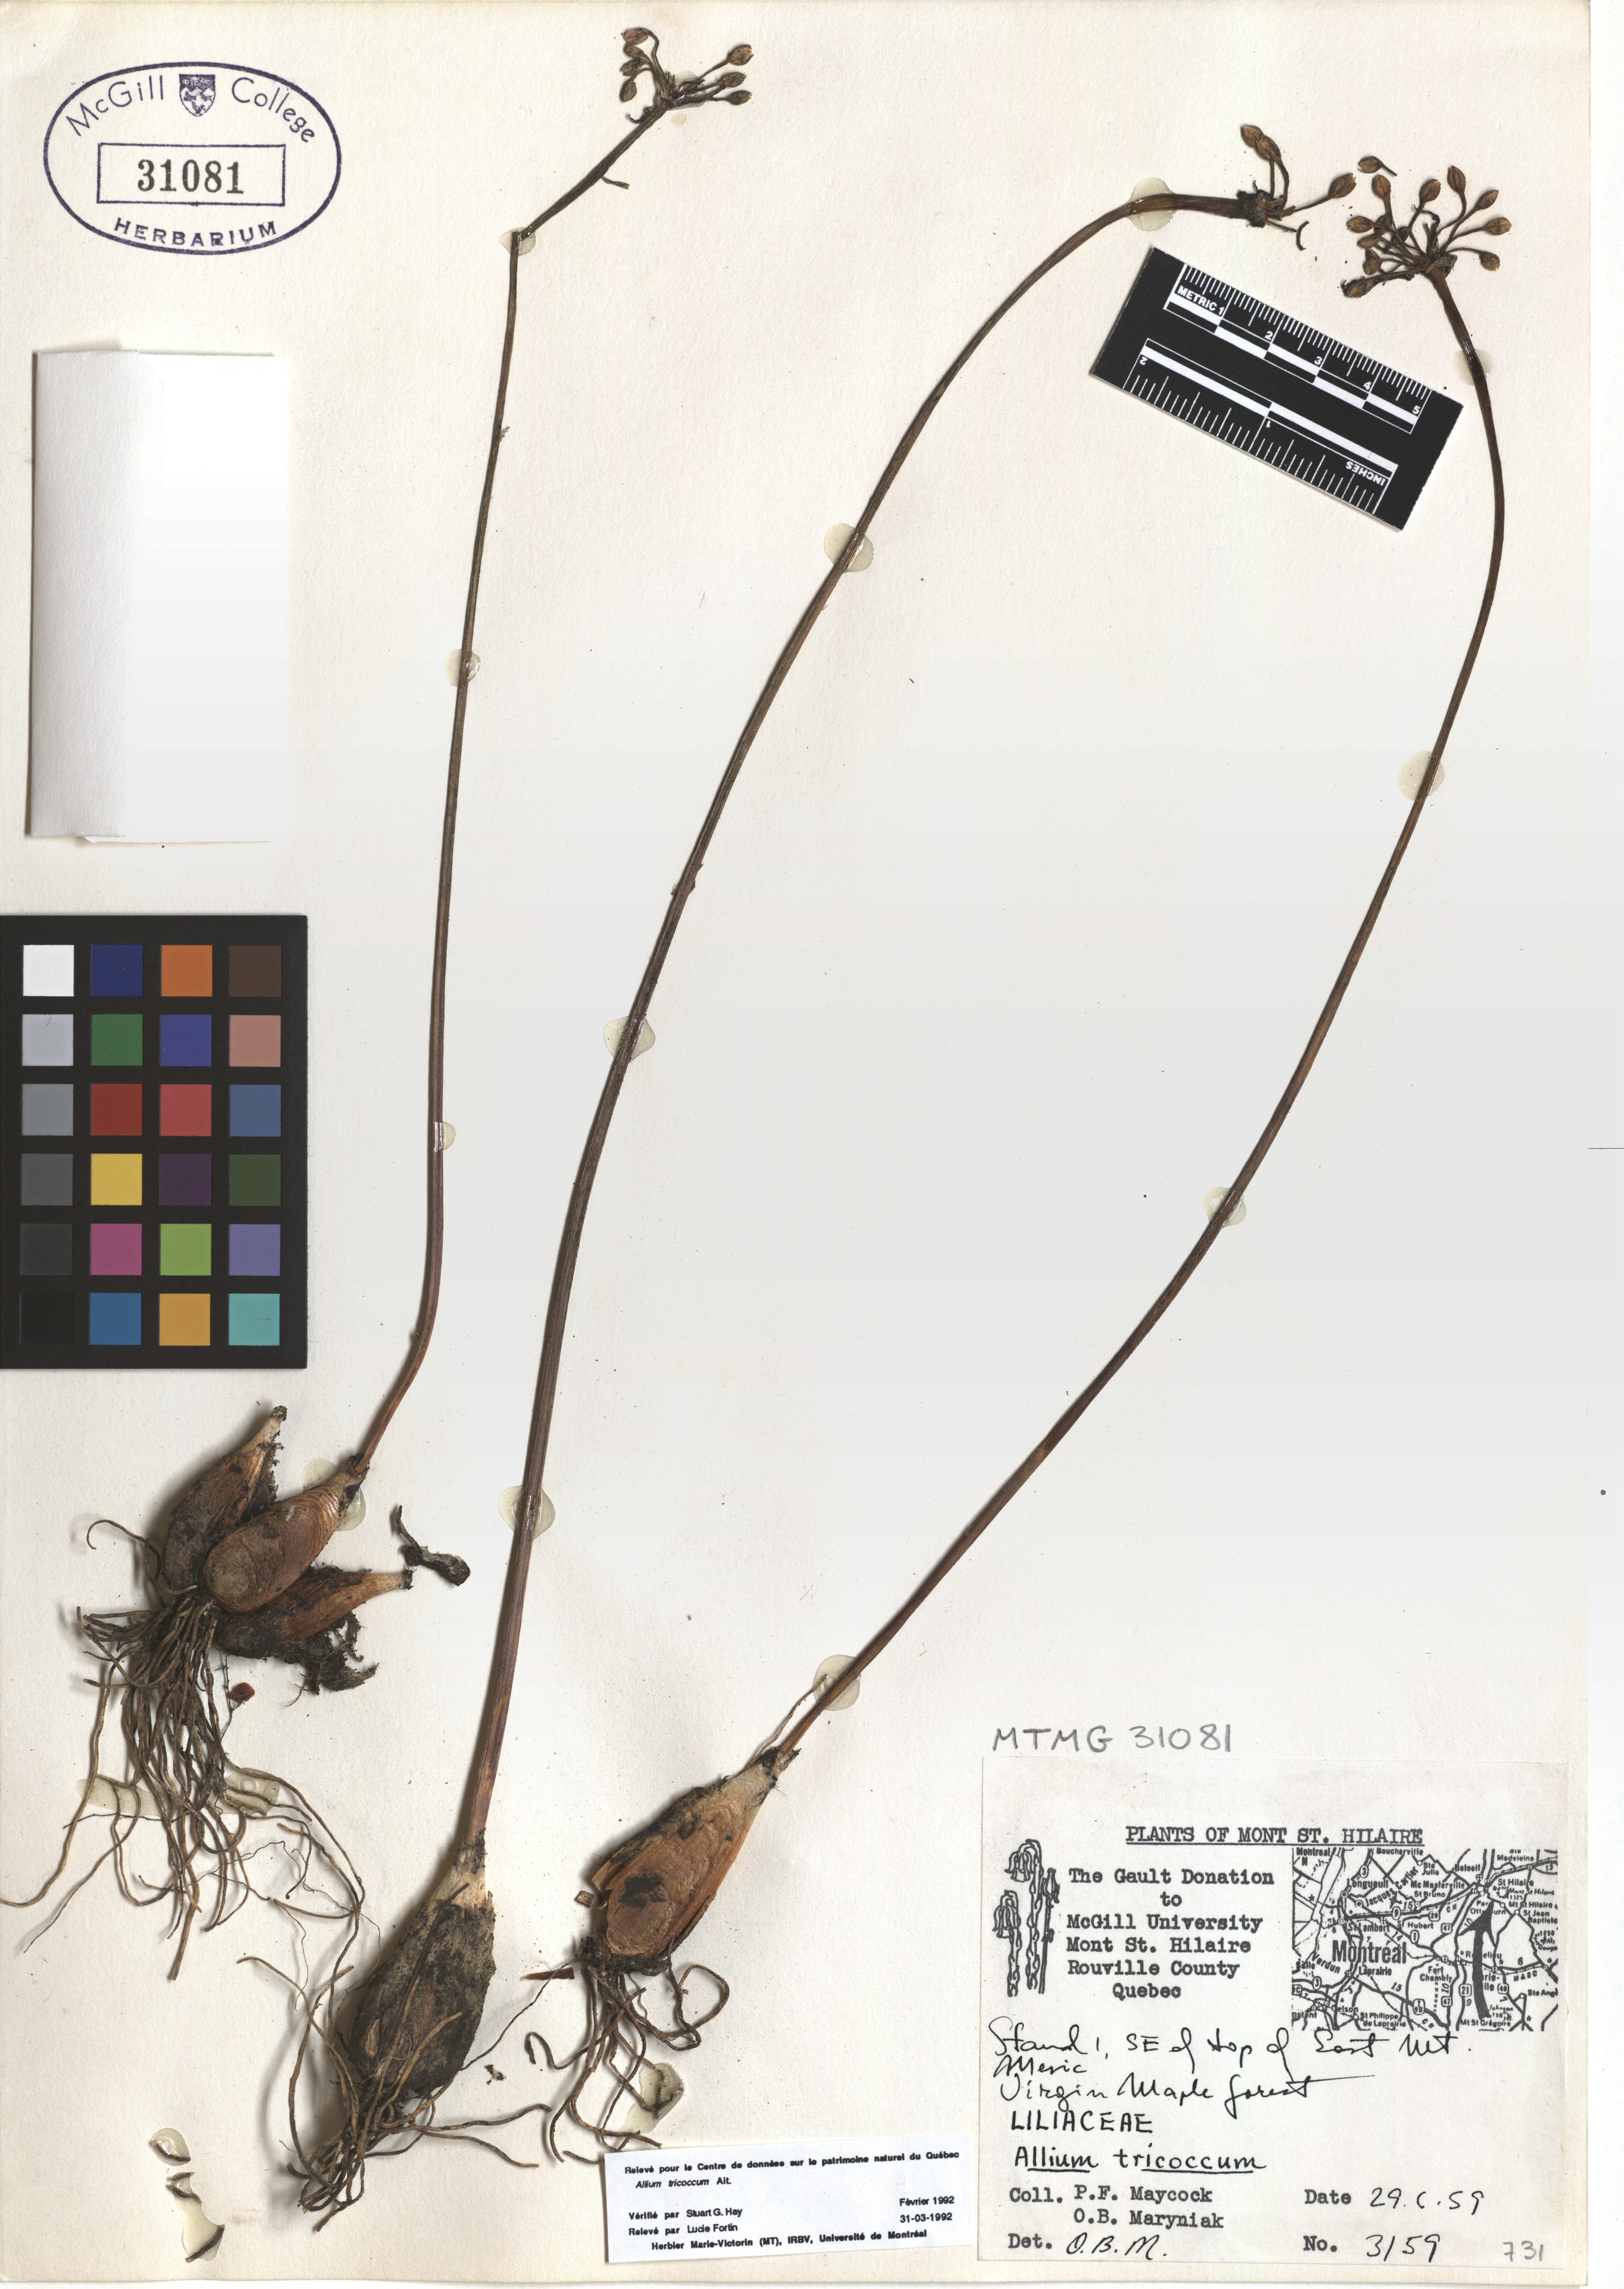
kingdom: Plantae
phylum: Tracheophyta
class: Liliopsida
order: Asparagales
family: Amaryllidaceae
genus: Allium
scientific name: Allium tricoccum
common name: Ramp
